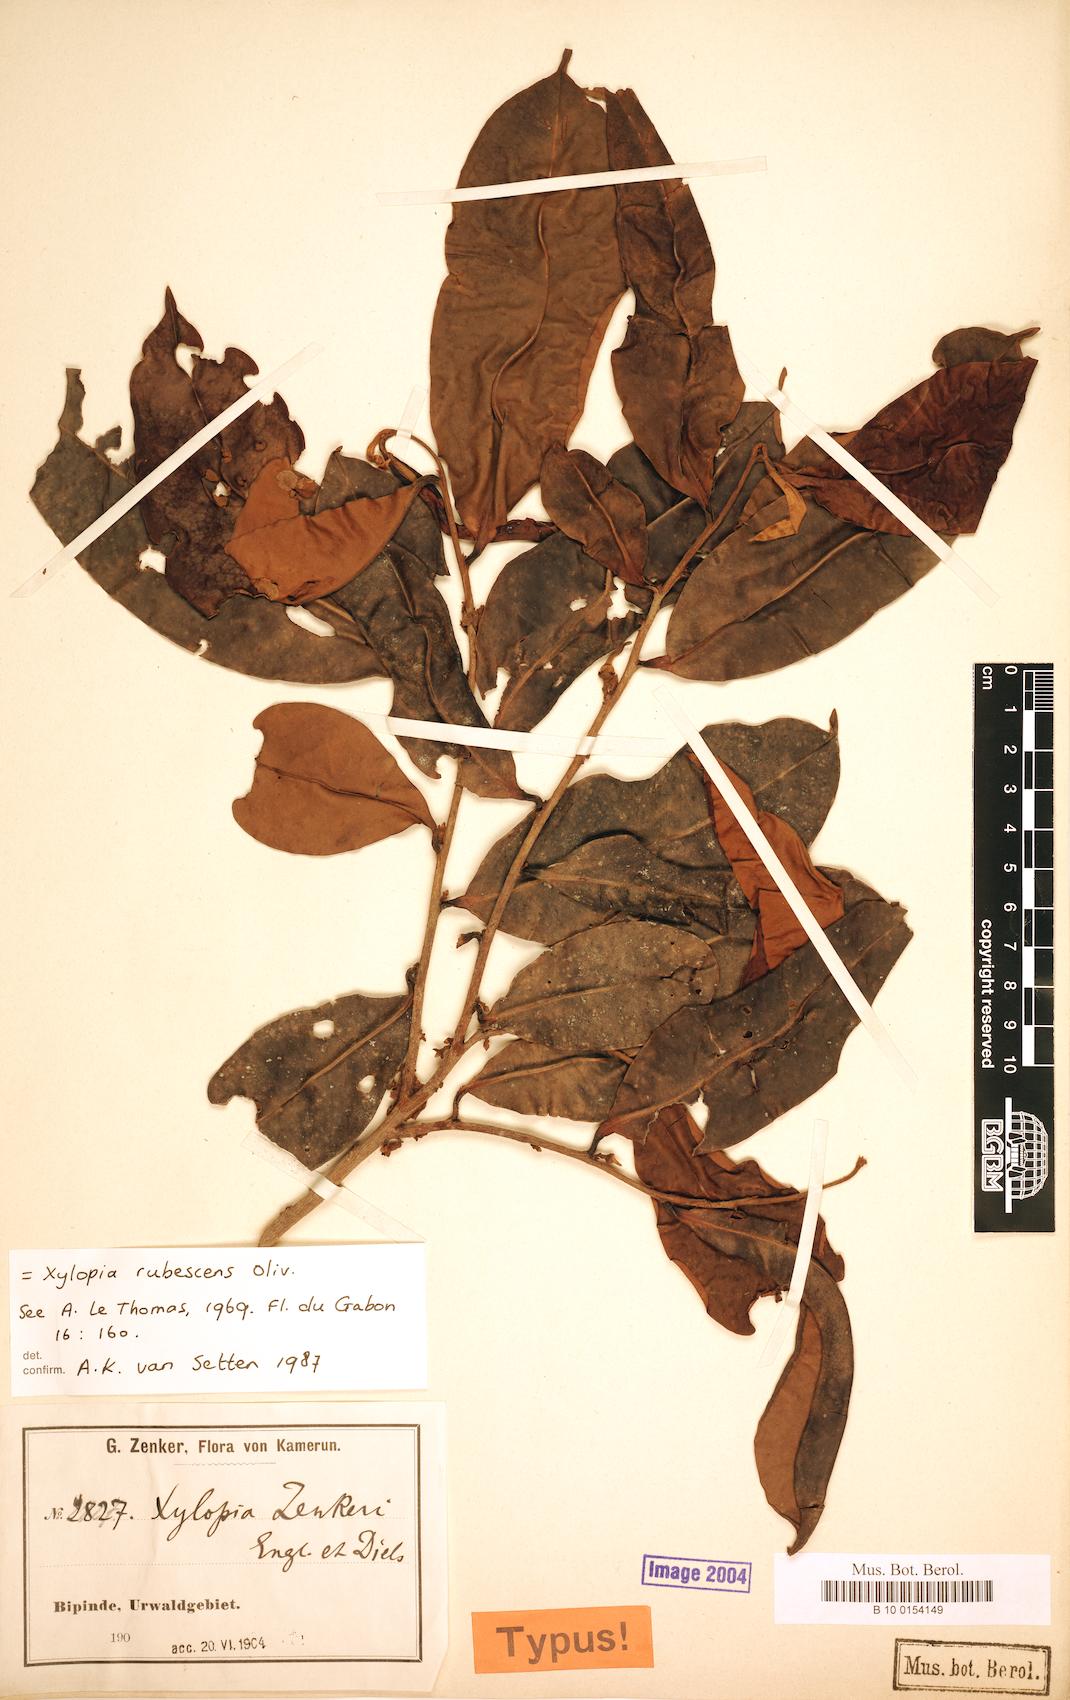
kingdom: Plantae
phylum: Tracheophyta
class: Magnoliopsida
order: Magnoliales
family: Annonaceae
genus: Xylopia
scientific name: Xylopia rubescens
